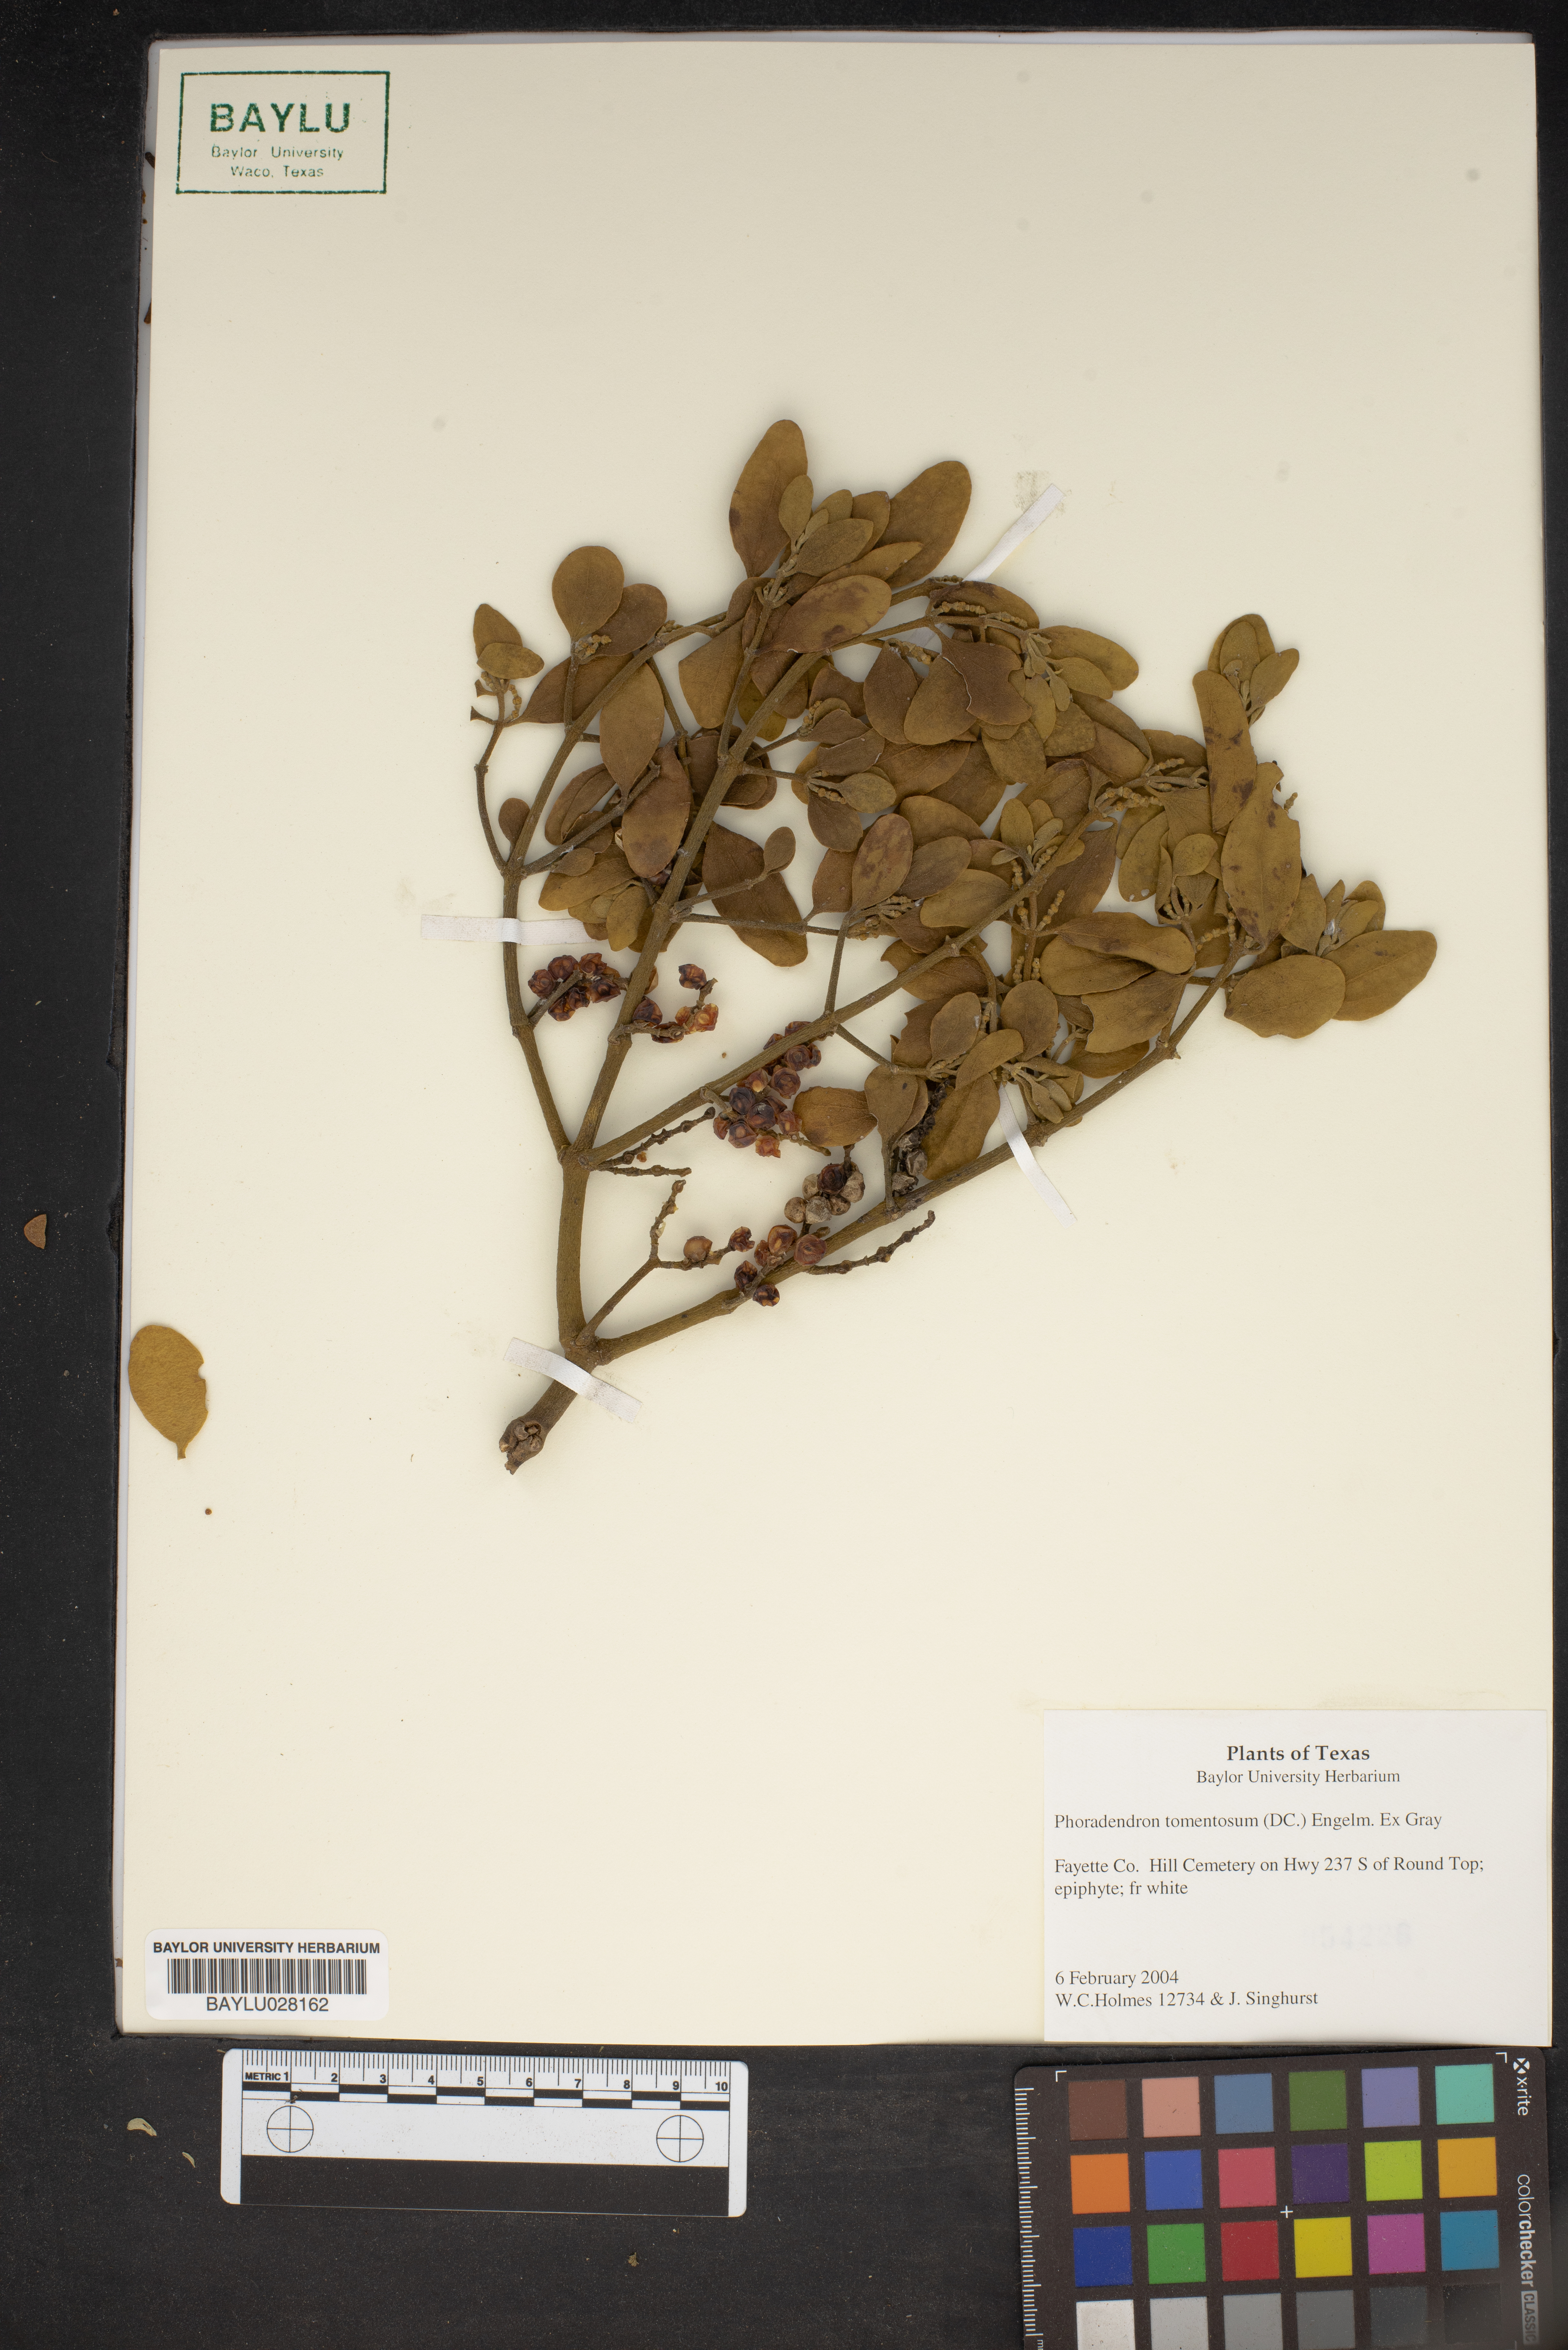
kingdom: Plantae
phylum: Tracheophyta
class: Magnoliopsida
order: Santalales
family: Viscaceae
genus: Phoradendron
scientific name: Phoradendron leucarpum
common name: Pacific mistletoe
